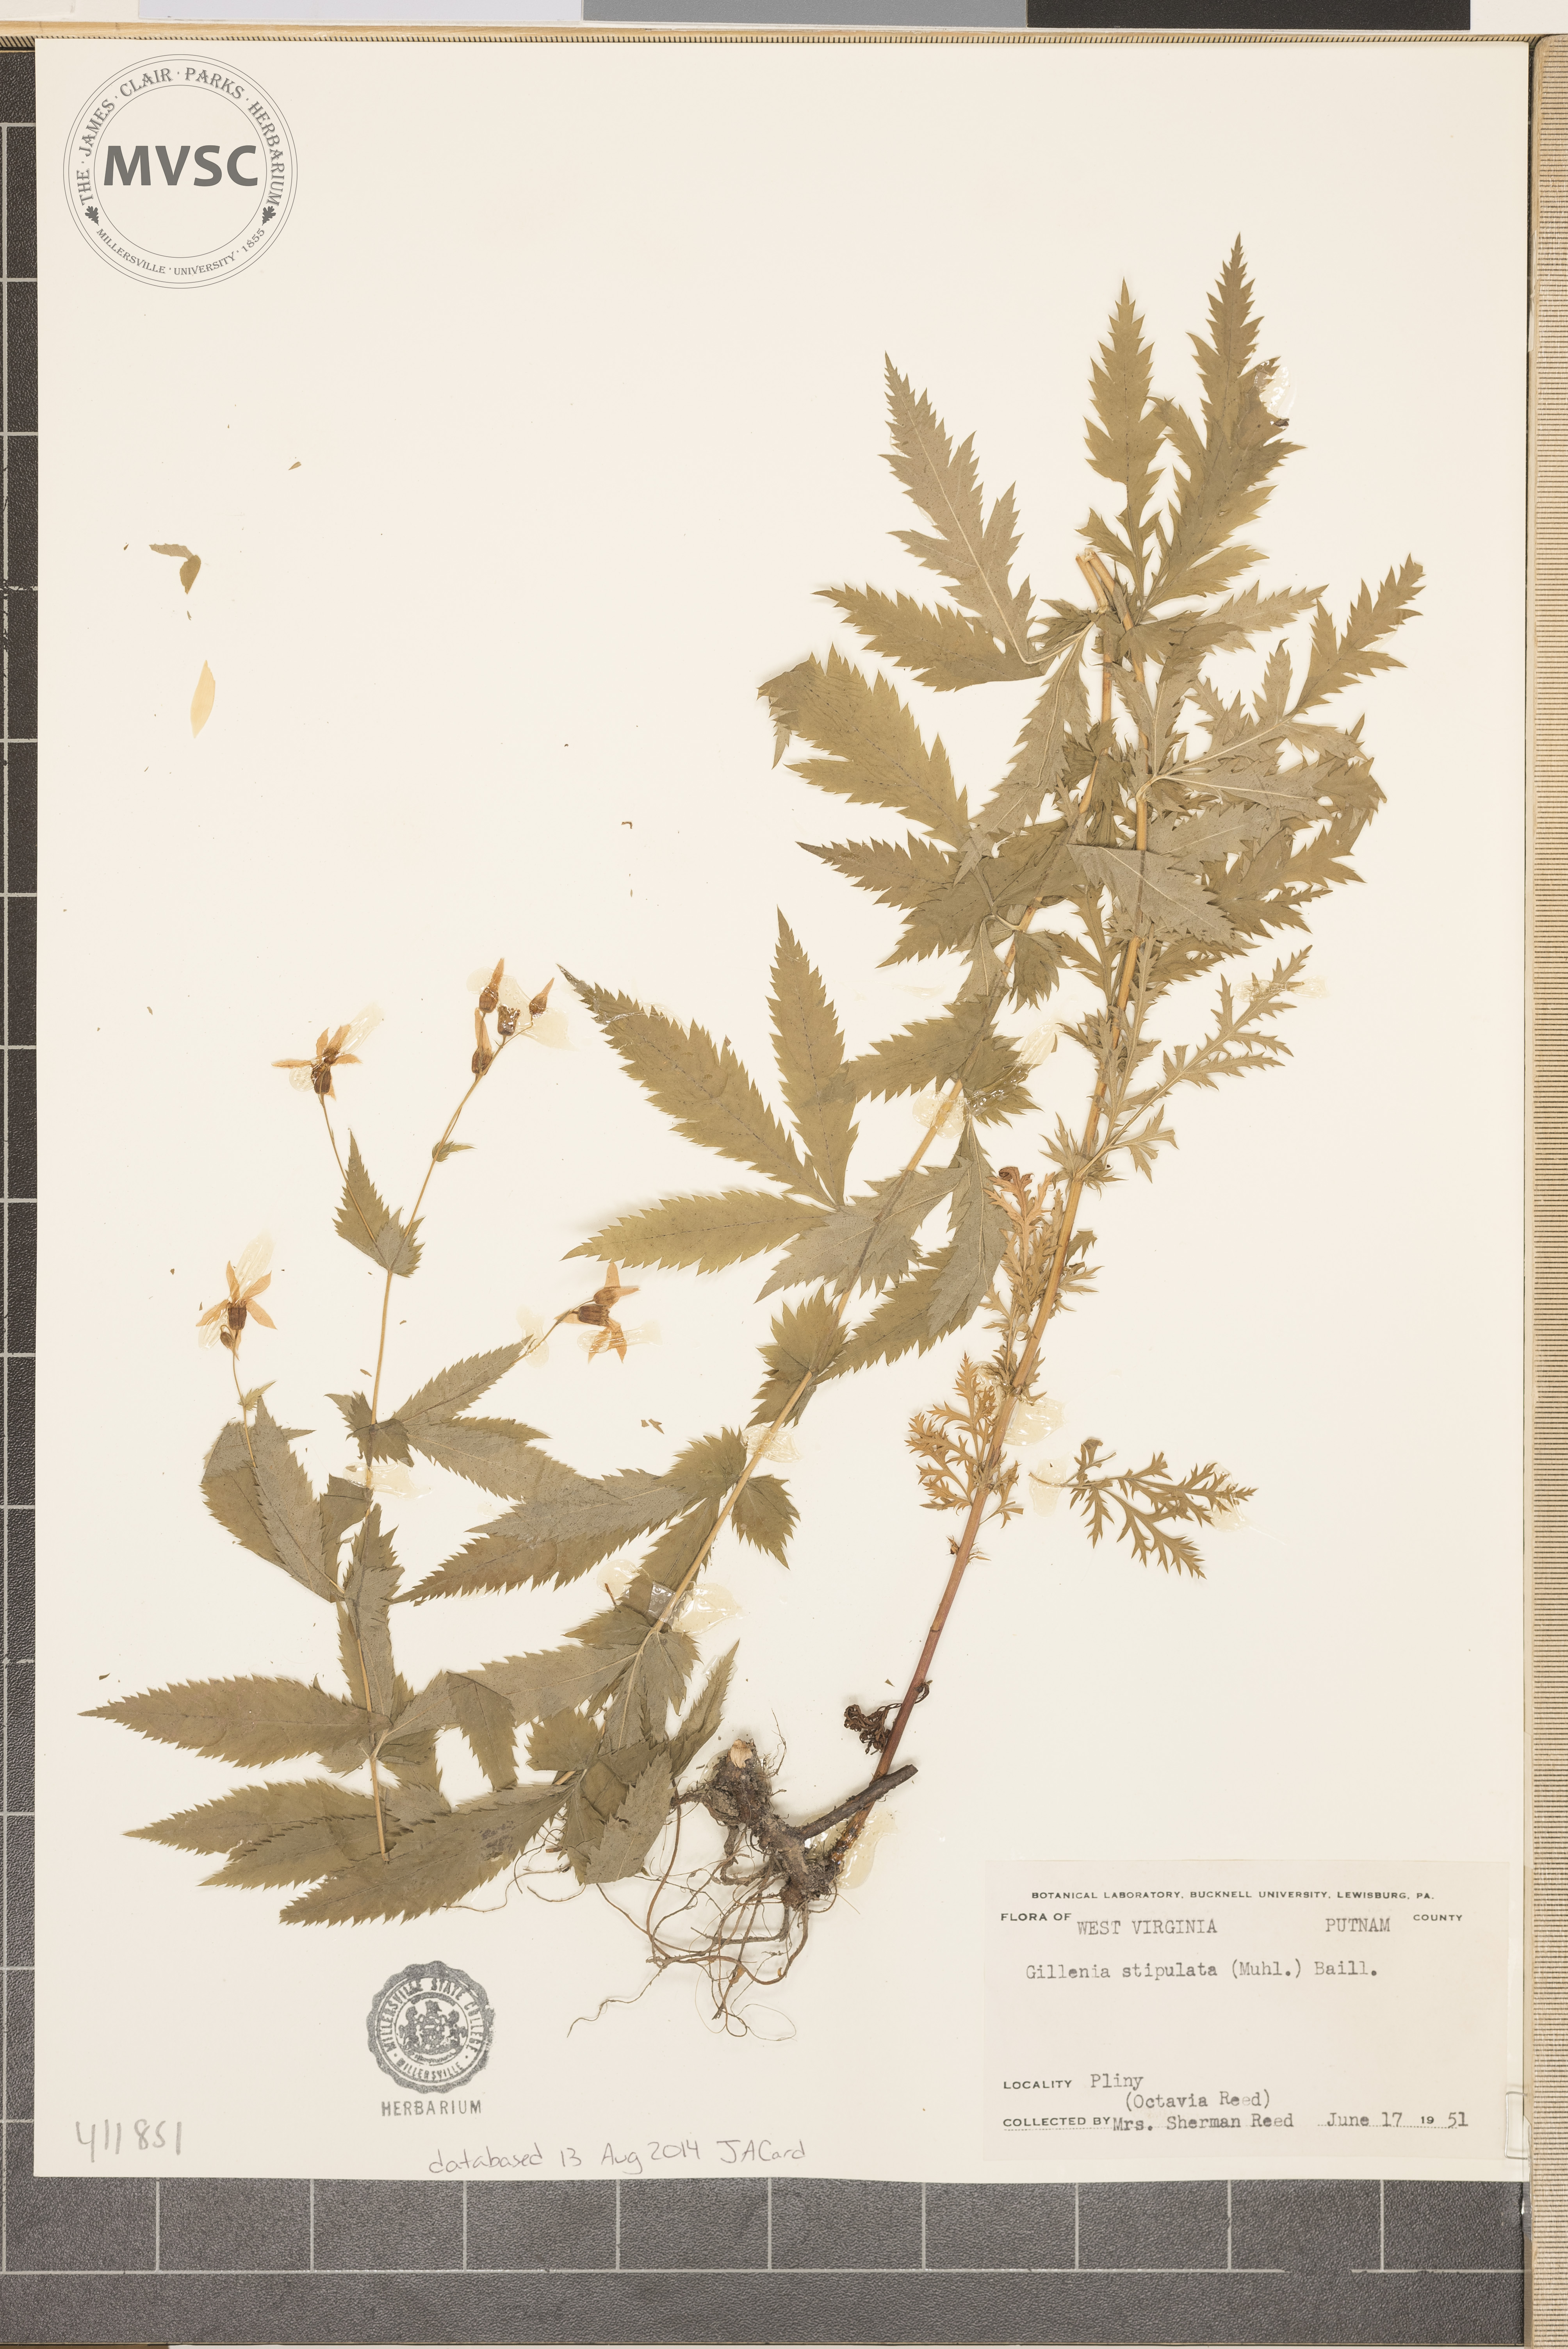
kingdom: Plantae
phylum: Tracheophyta
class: Magnoliopsida
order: Rosales
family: Rosaceae
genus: Gillenia
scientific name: Gillenia stipulata
